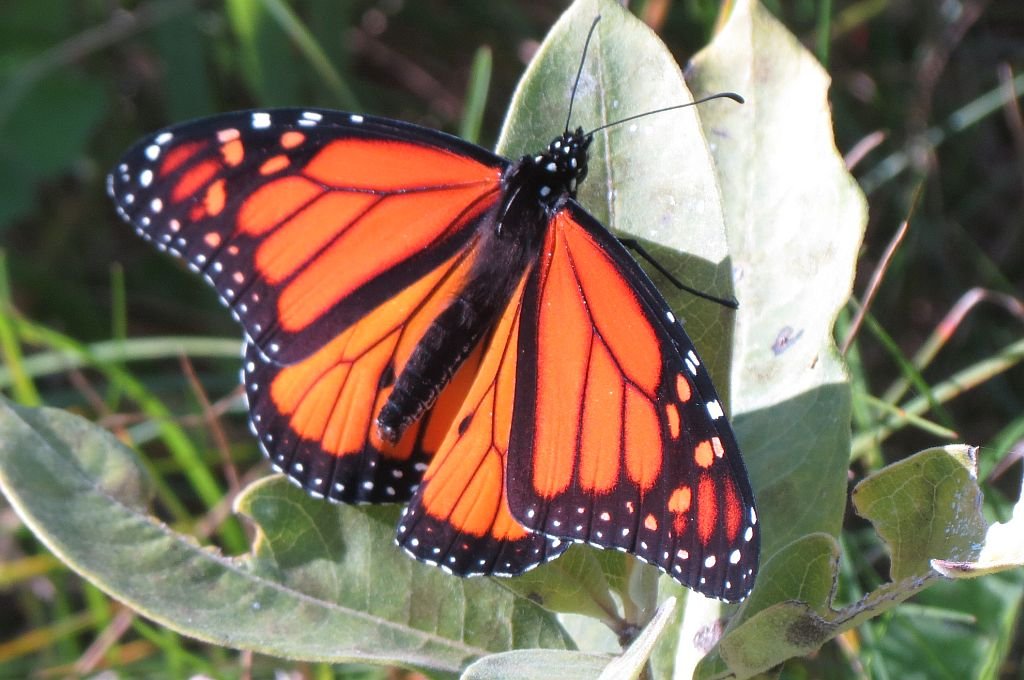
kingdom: Animalia
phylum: Arthropoda
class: Insecta
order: Lepidoptera
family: Nymphalidae
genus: Danaus
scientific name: Danaus plexippus
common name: Monarch
